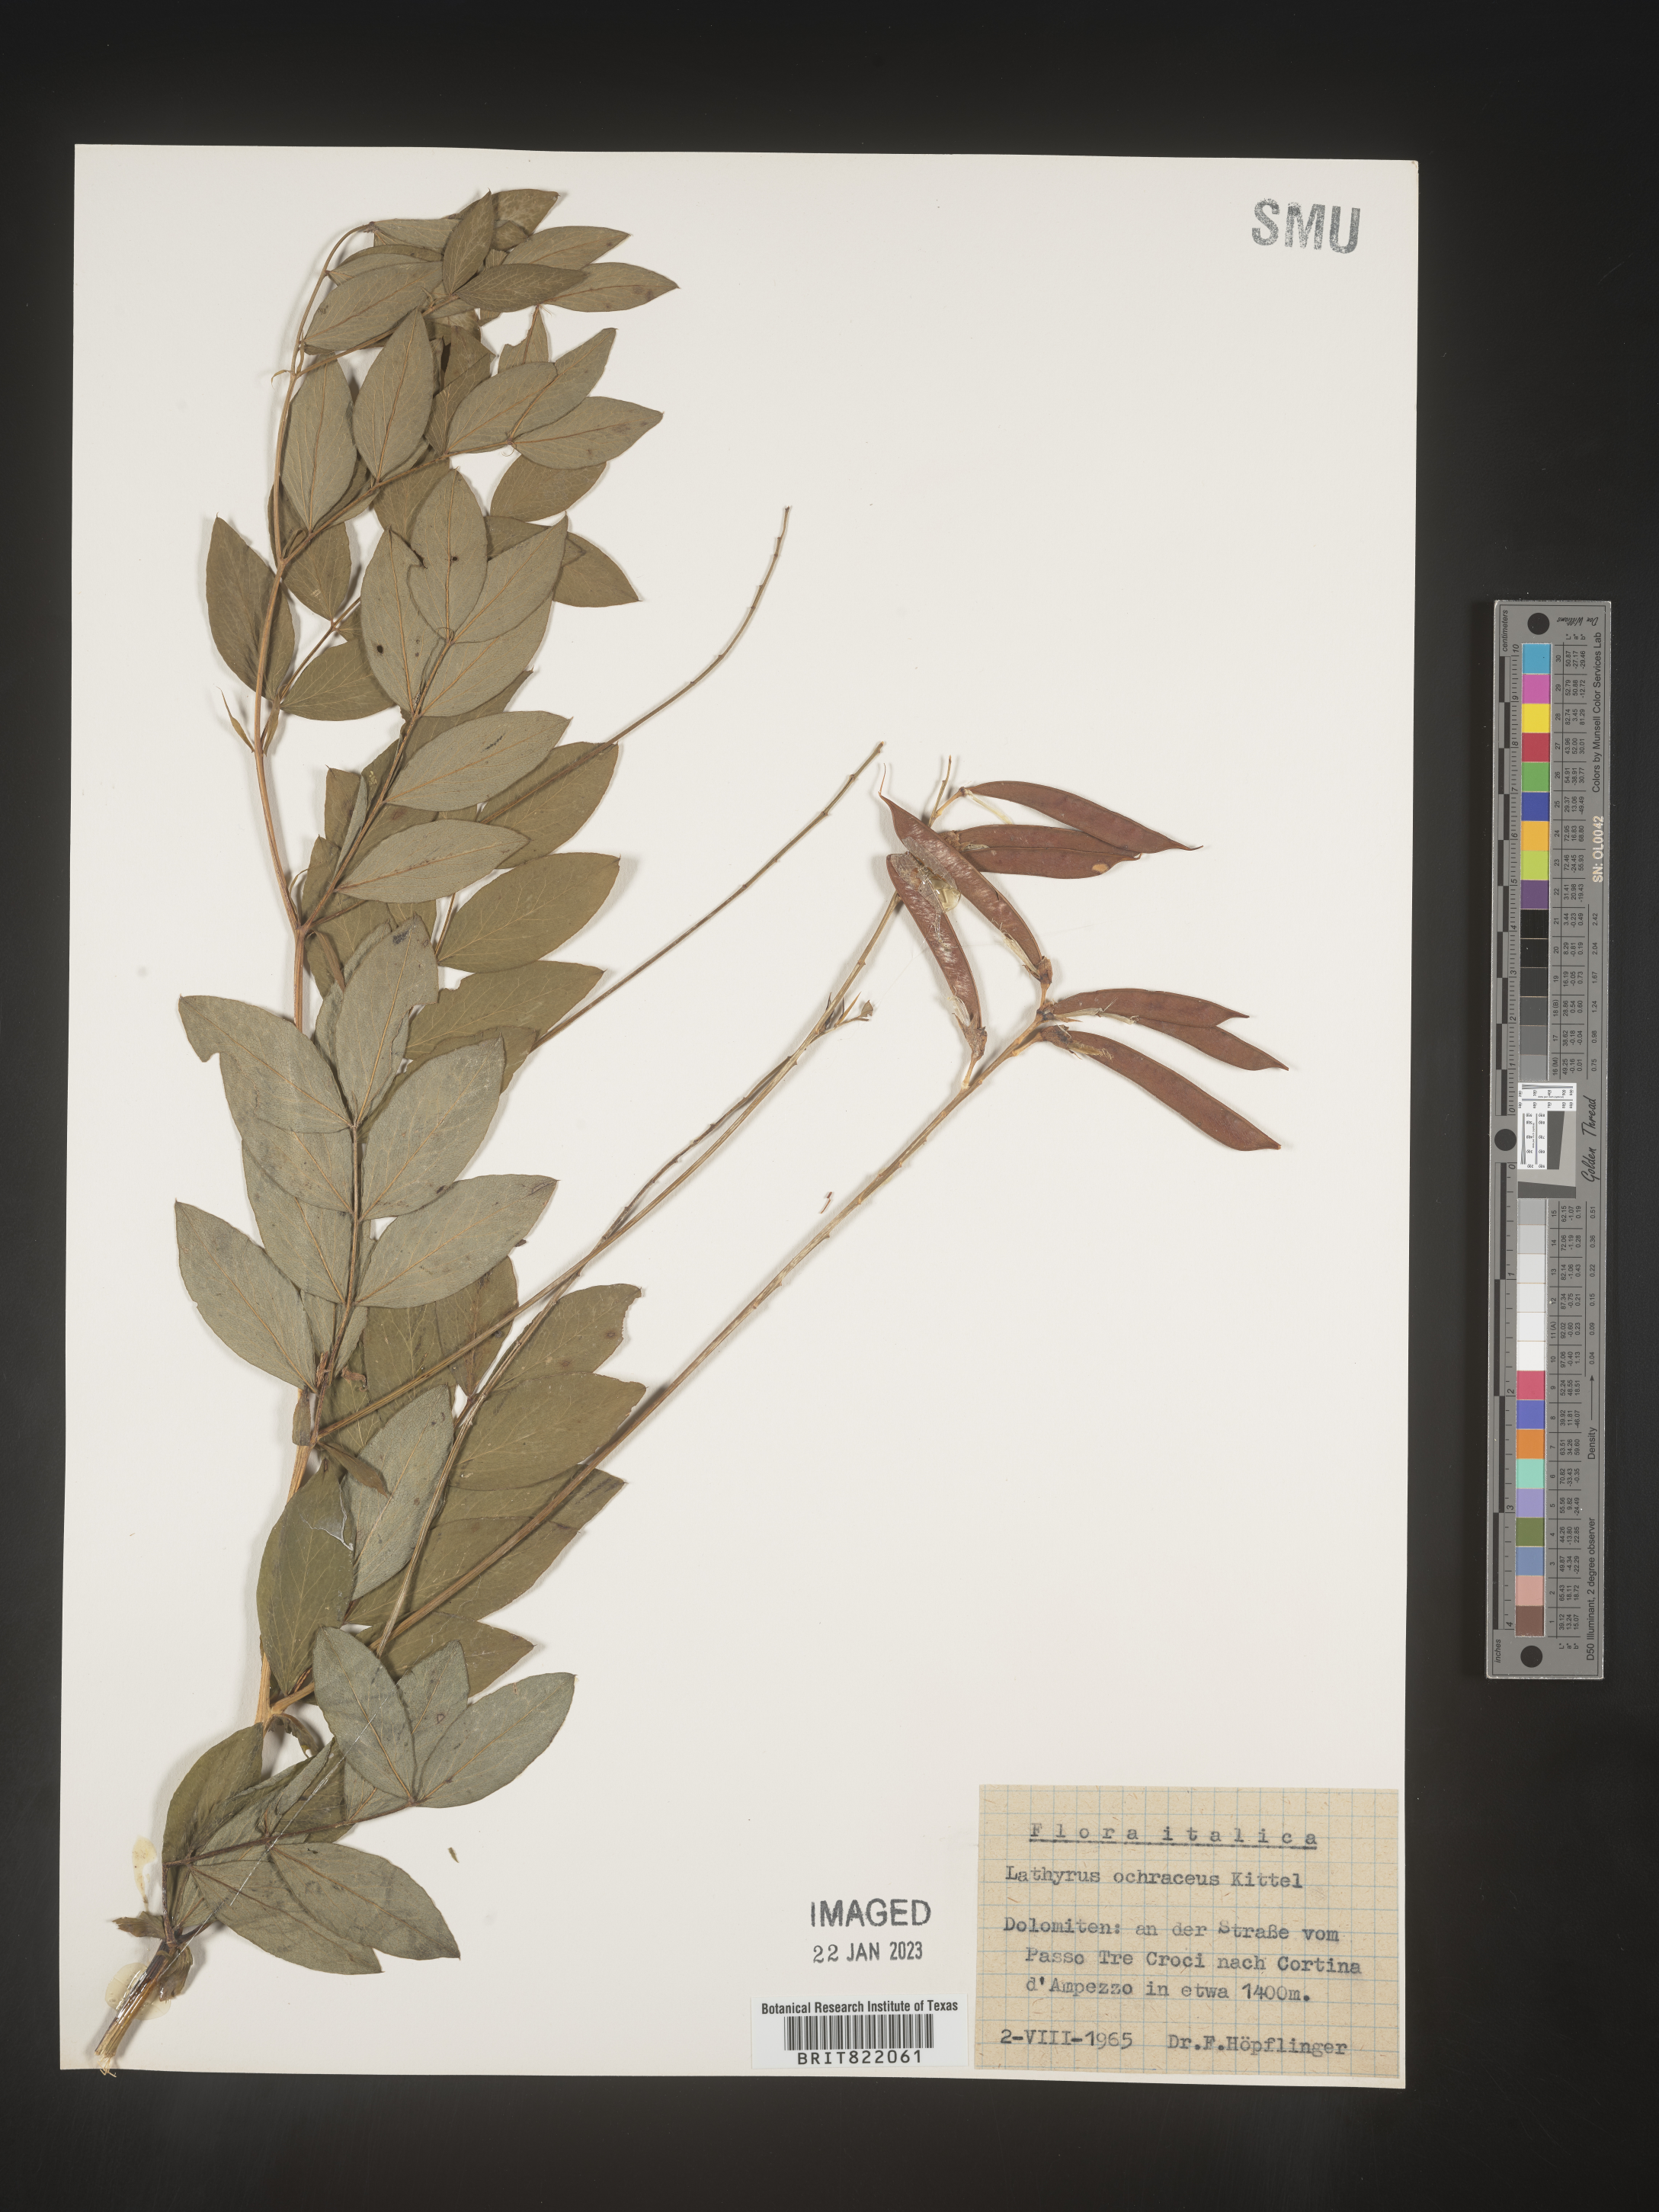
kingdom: Plantae
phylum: Tracheophyta
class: Magnoliopsida
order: Fabales
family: Fabaceae
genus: Lathyrus
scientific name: Lathyrus
